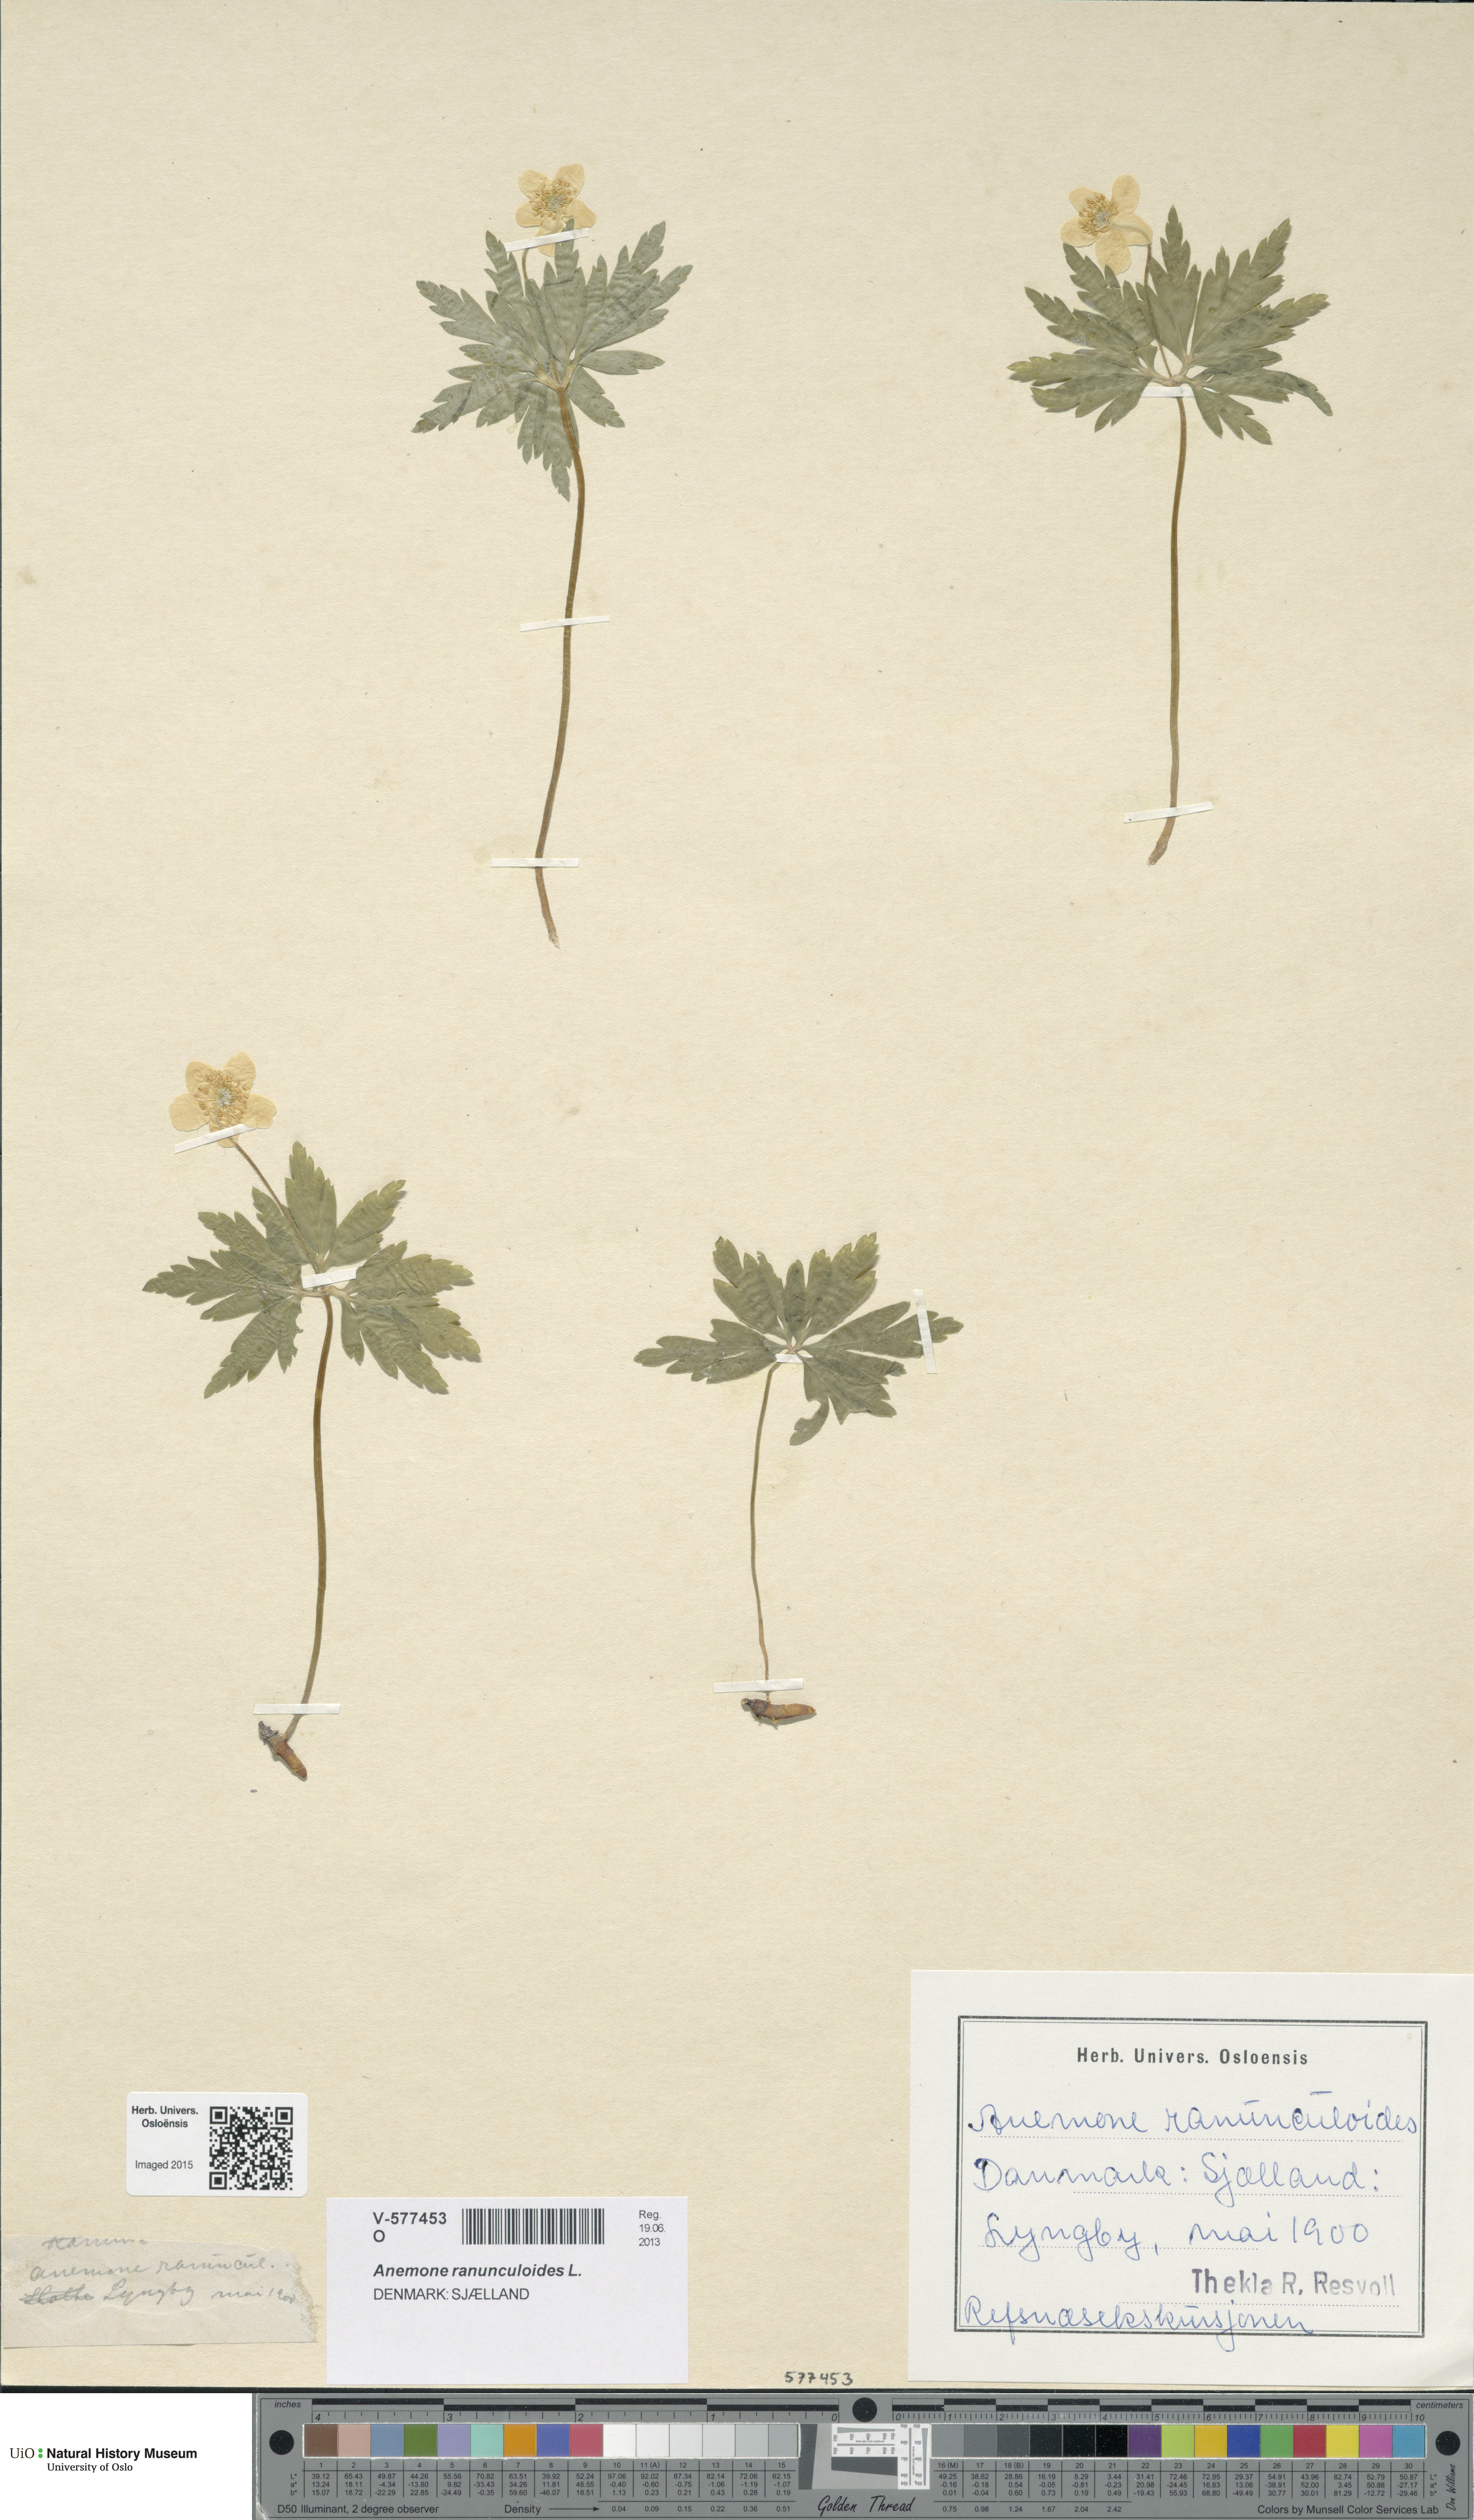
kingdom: Plantae
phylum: Tracheophyta
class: Magnoliopsida
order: Ranunculales
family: Ranunculaceae
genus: Anemone
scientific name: Anemone ranunculoides
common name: Yellow anemone
